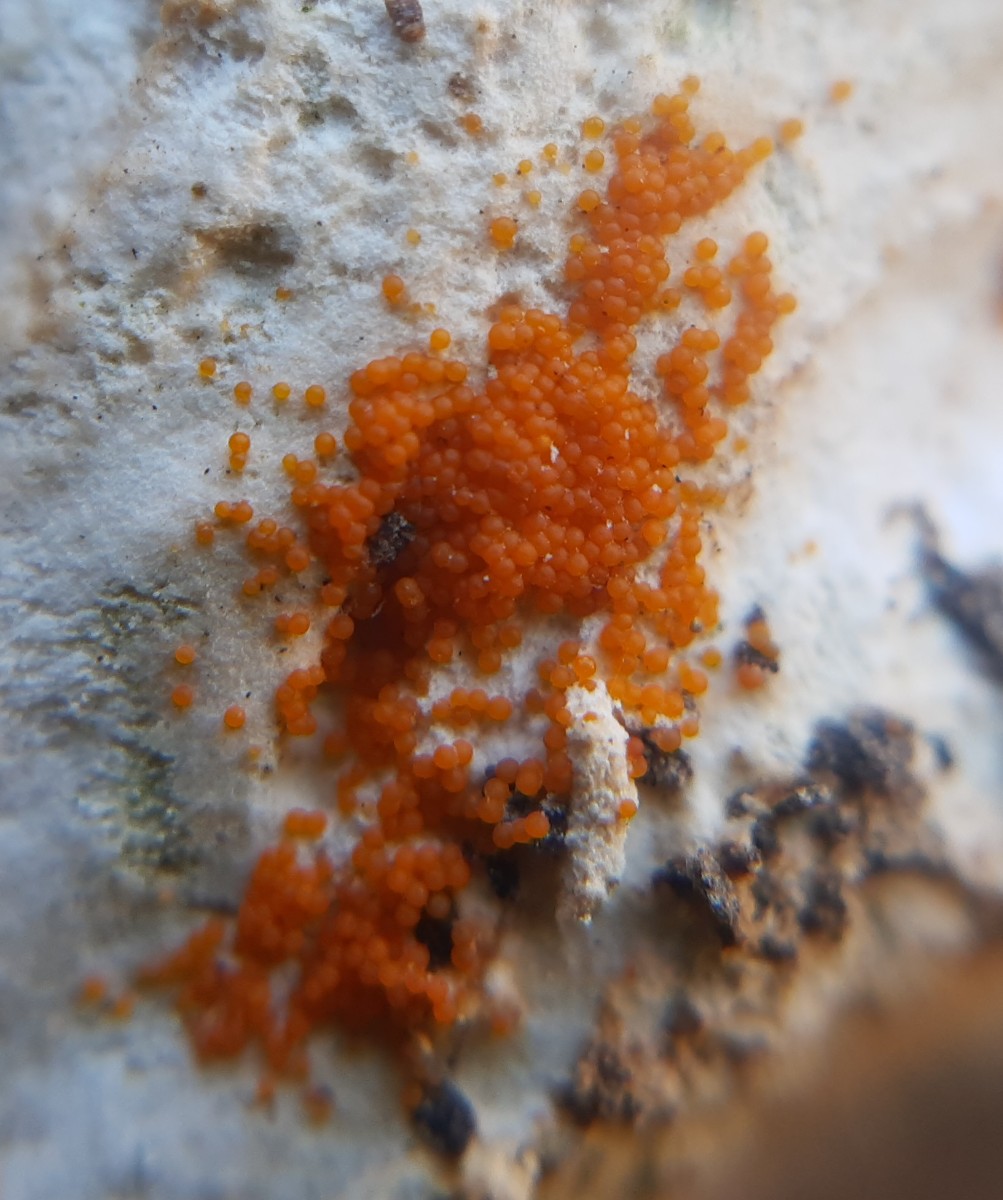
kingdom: Fungi
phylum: Ascomycota
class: Sordariomycetes
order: Hypocreales
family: Nectriaceae
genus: Hydropisphaera
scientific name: Hydropisphaera peziza
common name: skålformet gyldenkerne
